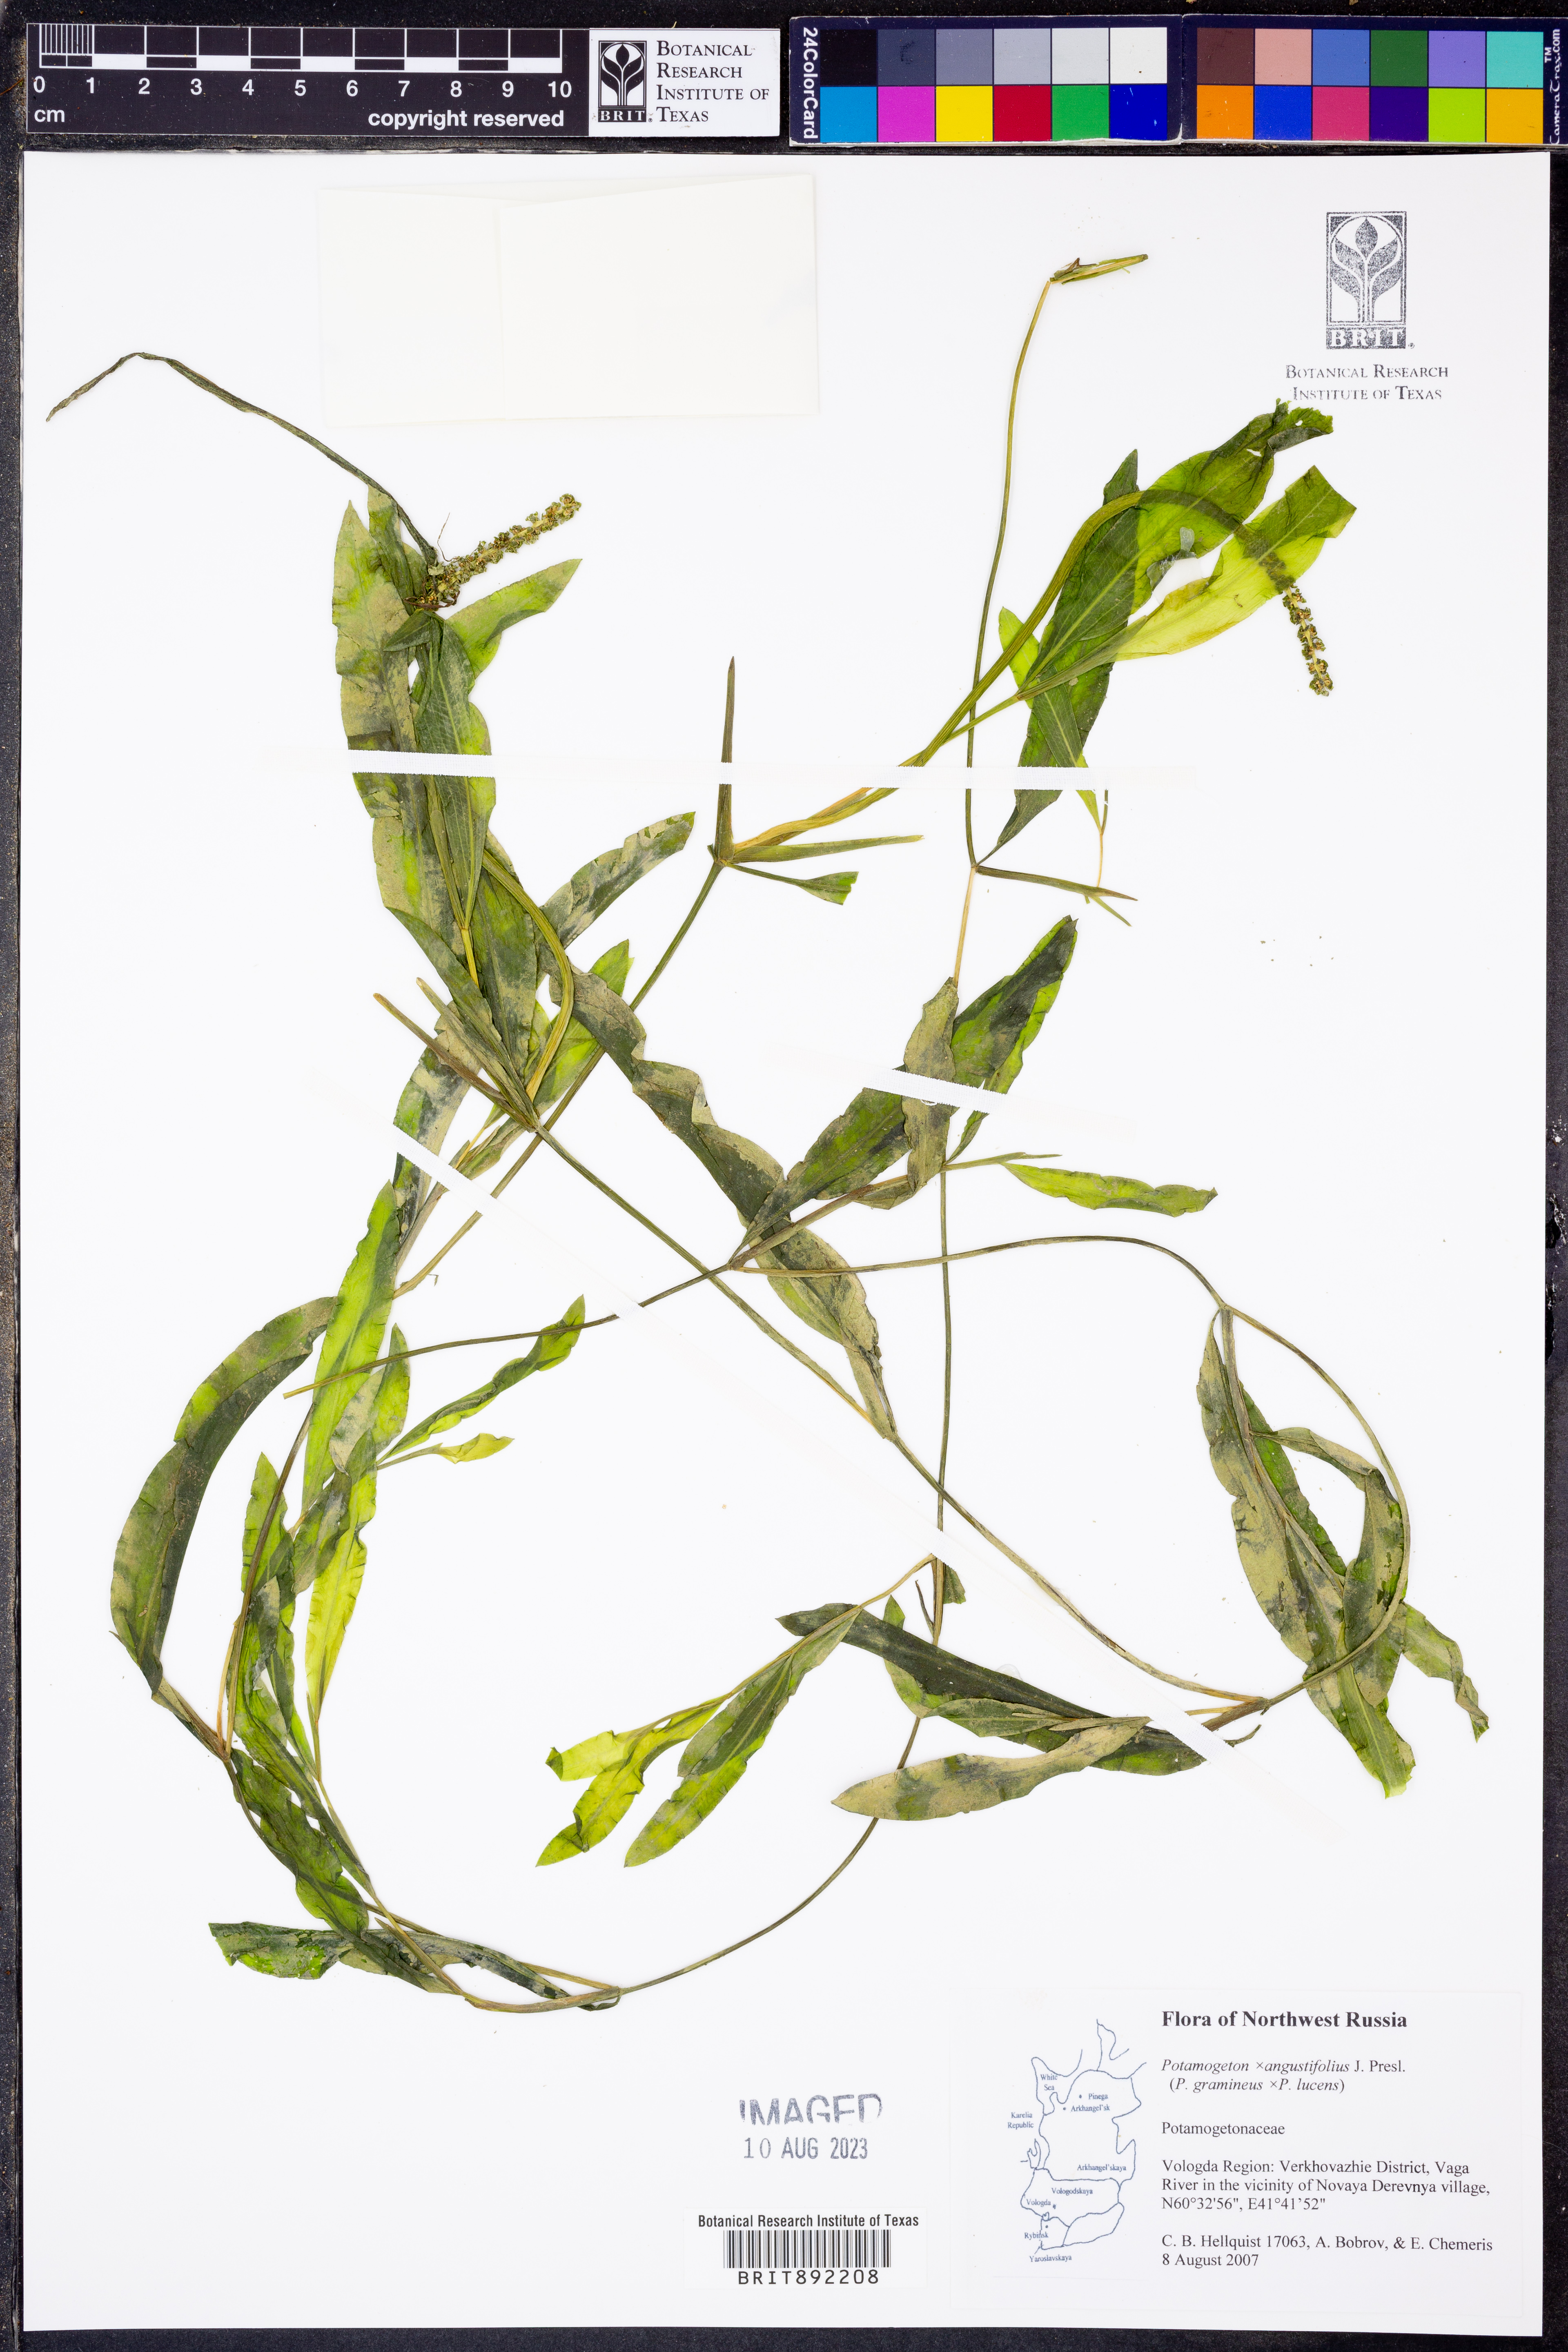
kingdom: Plantae
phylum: Tracheophyta
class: Liliopsida
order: Alismatales
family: Potamogetonaceae
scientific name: Potamogetonaceae
